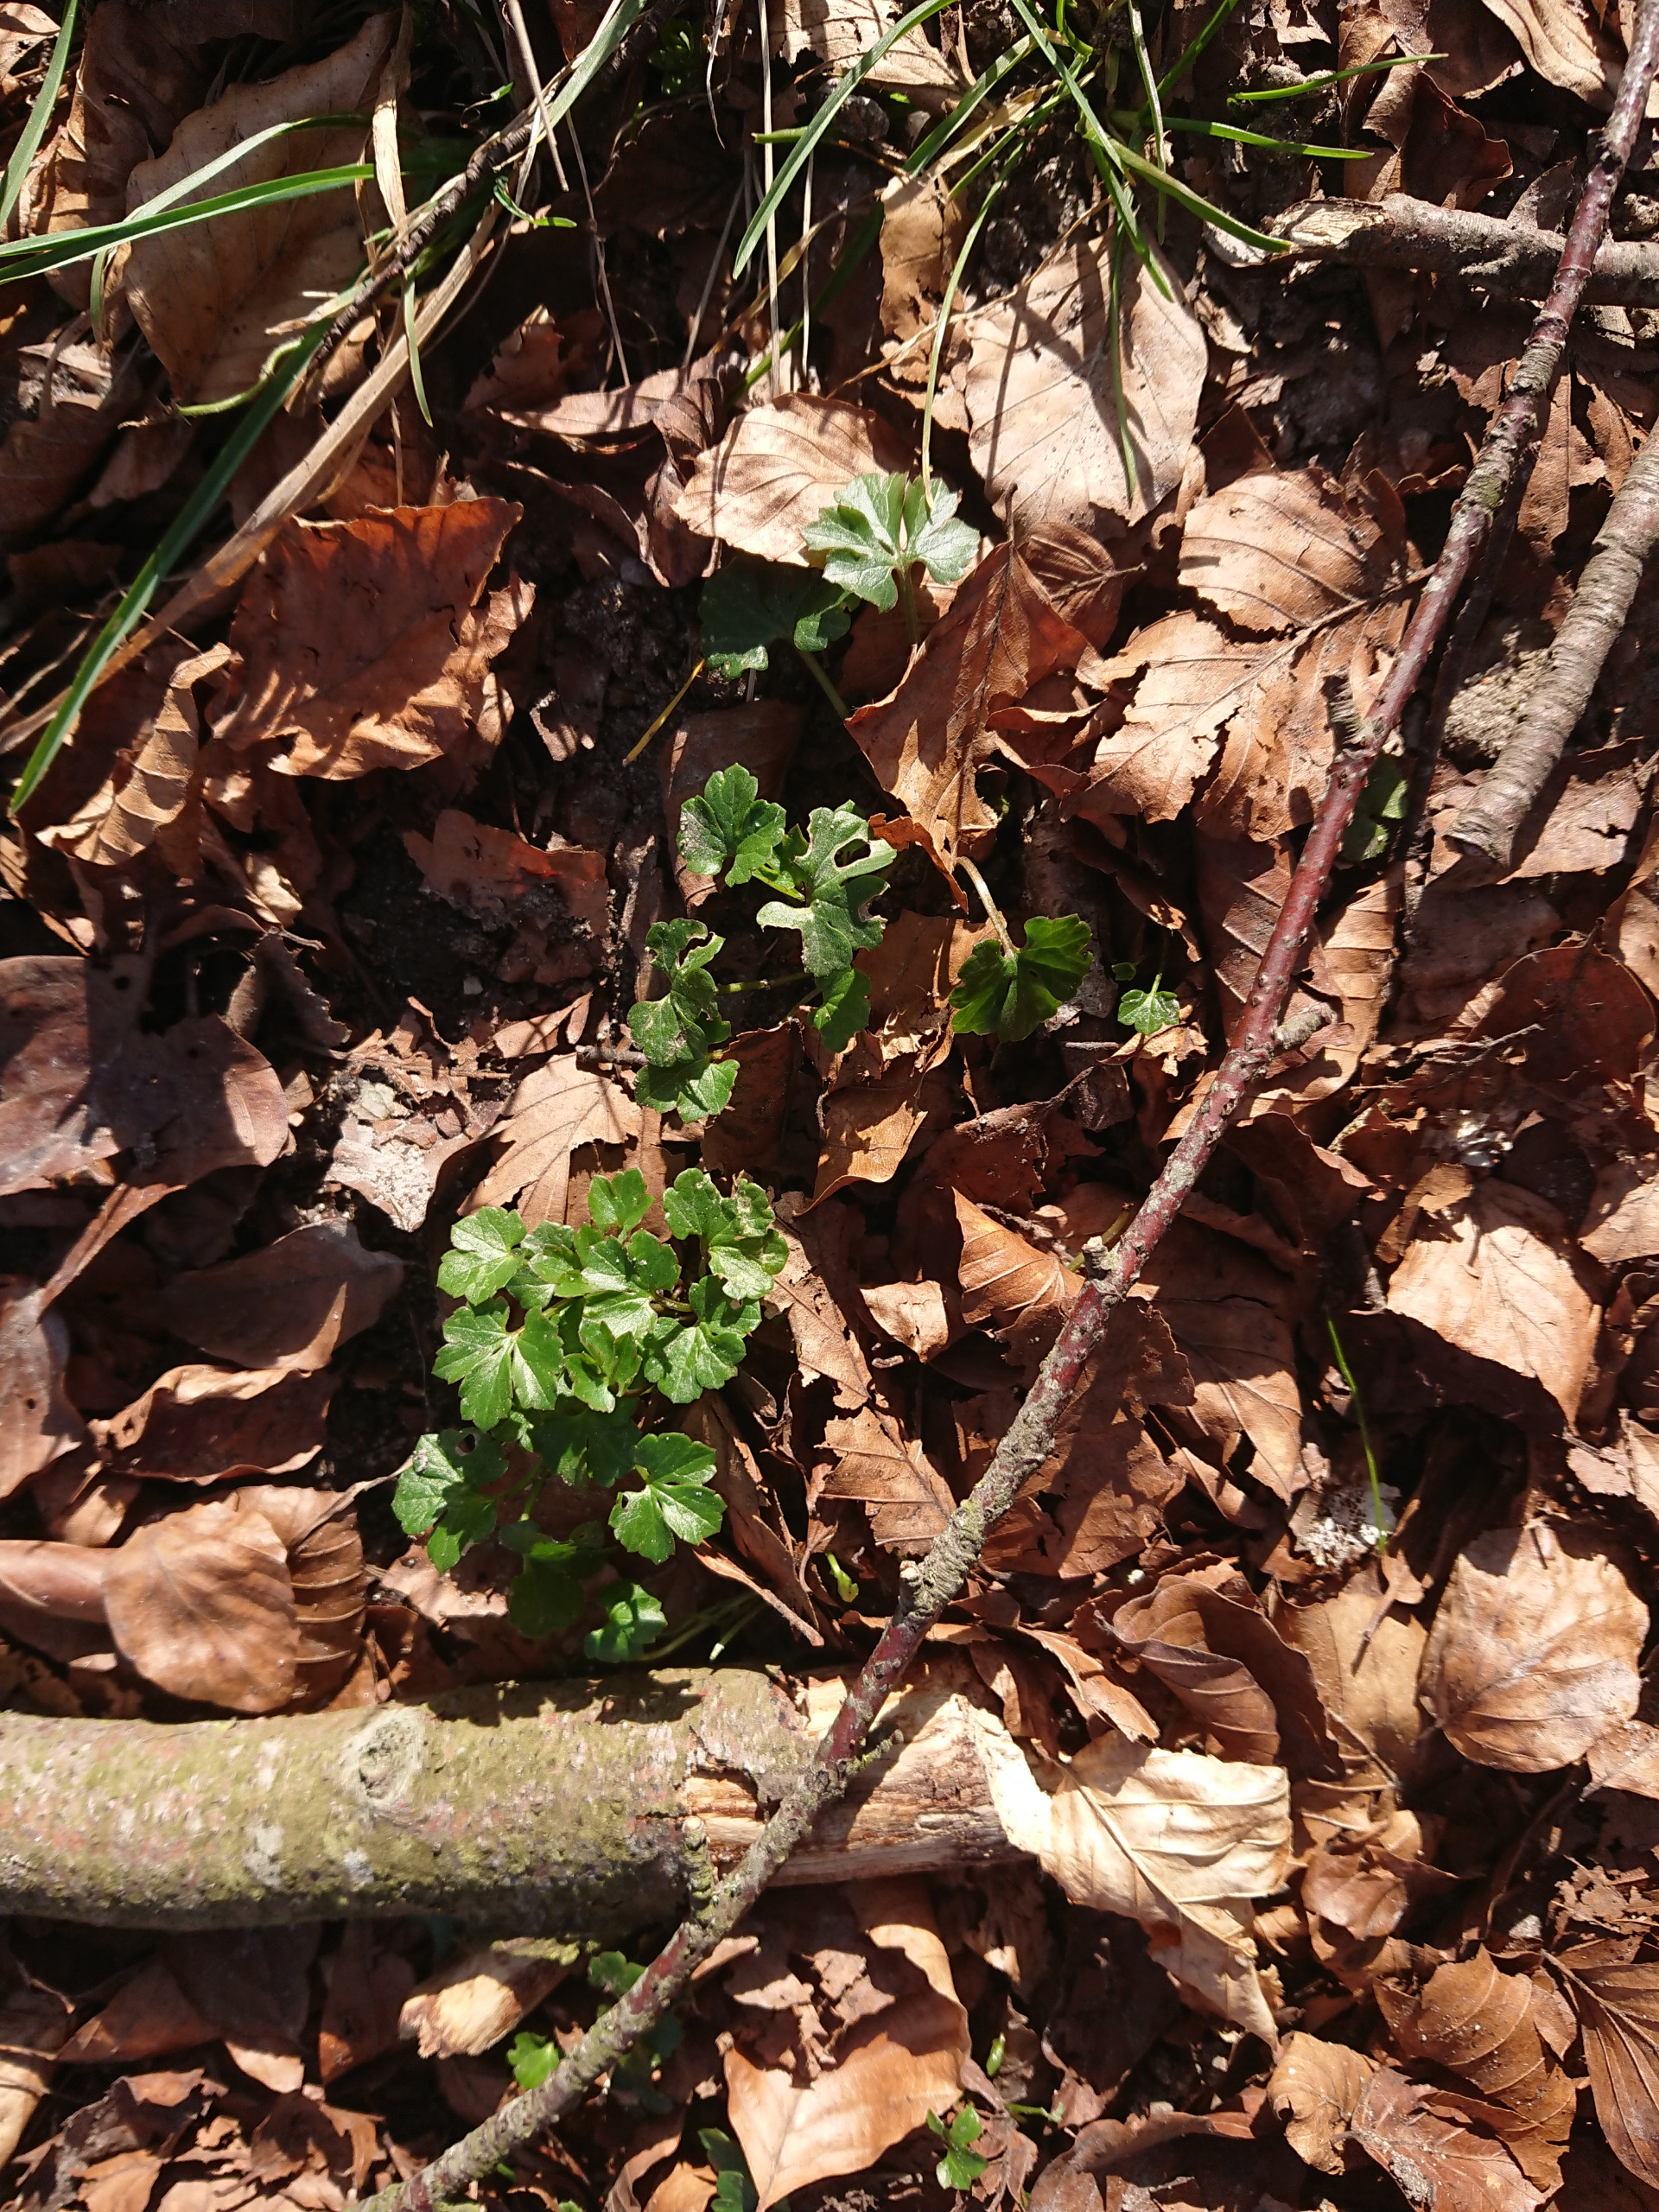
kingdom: Plantae
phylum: Tracheophyta
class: Magnoliopsida
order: Ranunculales
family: Ranunculaceae
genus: Ranunculus
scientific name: Ranunculus auricomus
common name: Nyrebladet ranunkel
